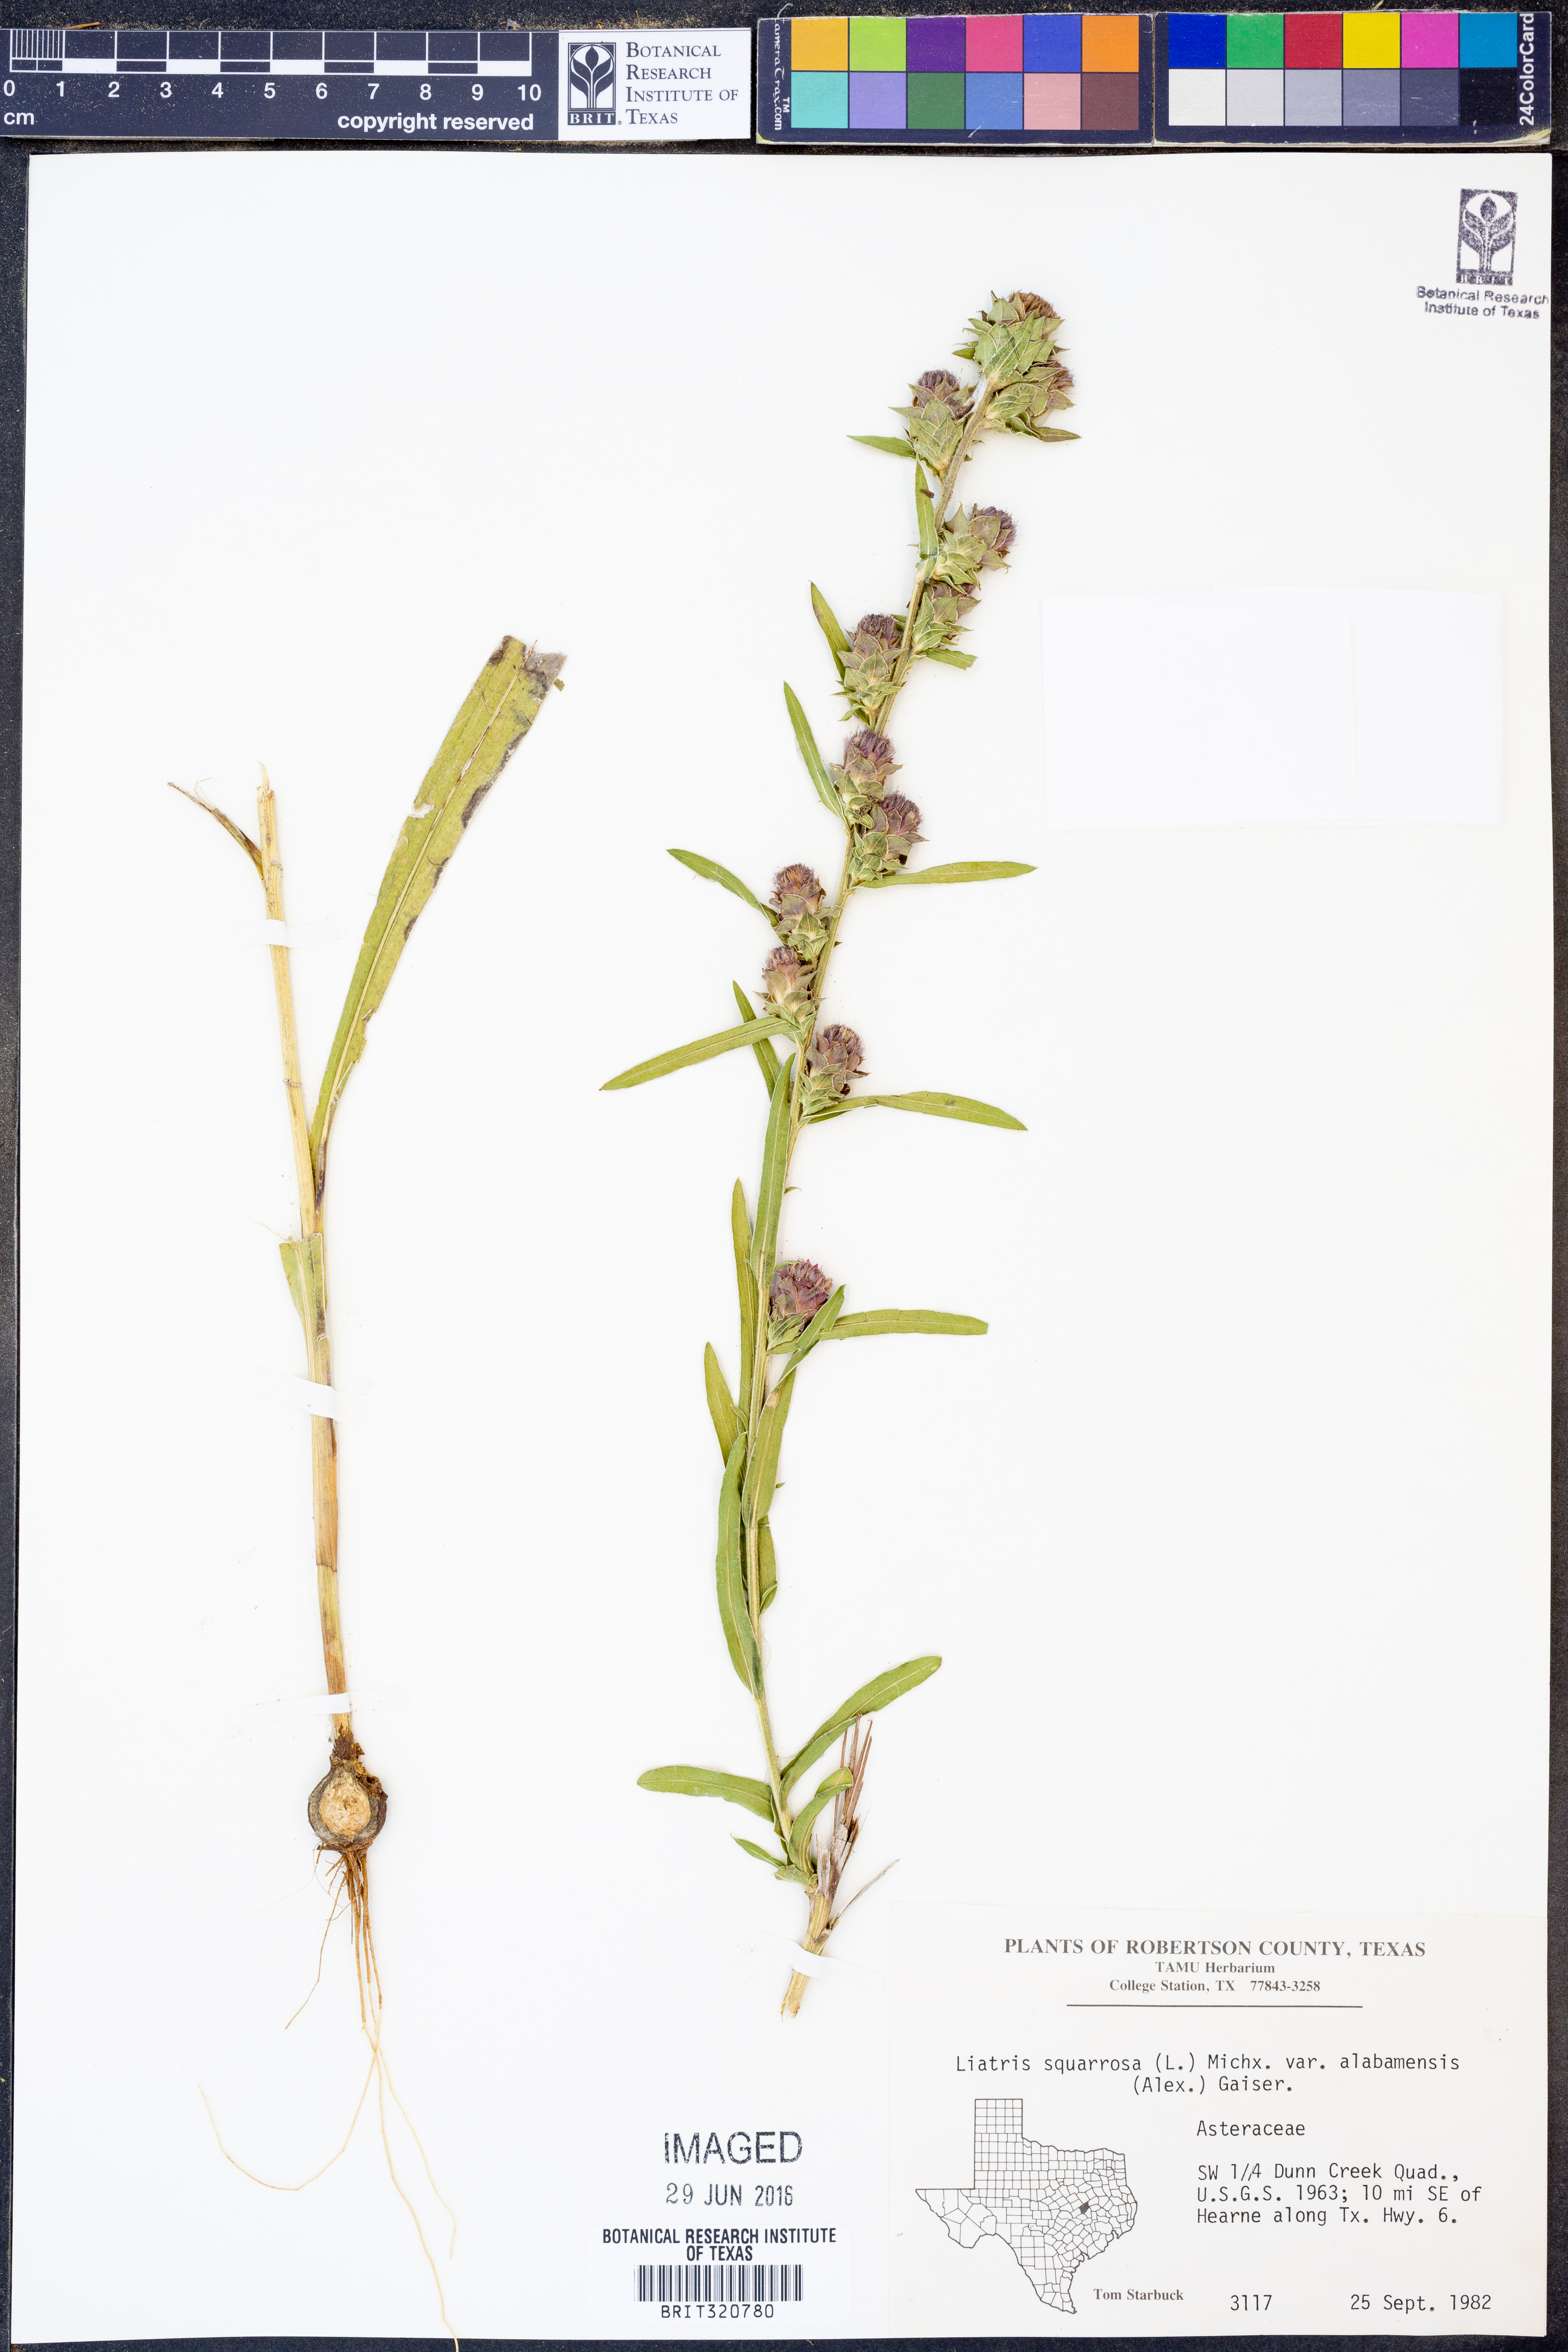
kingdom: Plantae
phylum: Tracheophyta
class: Magnoliopsida
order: Asterales
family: Asteraceae
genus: Liatris
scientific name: Liatris squarrosa
